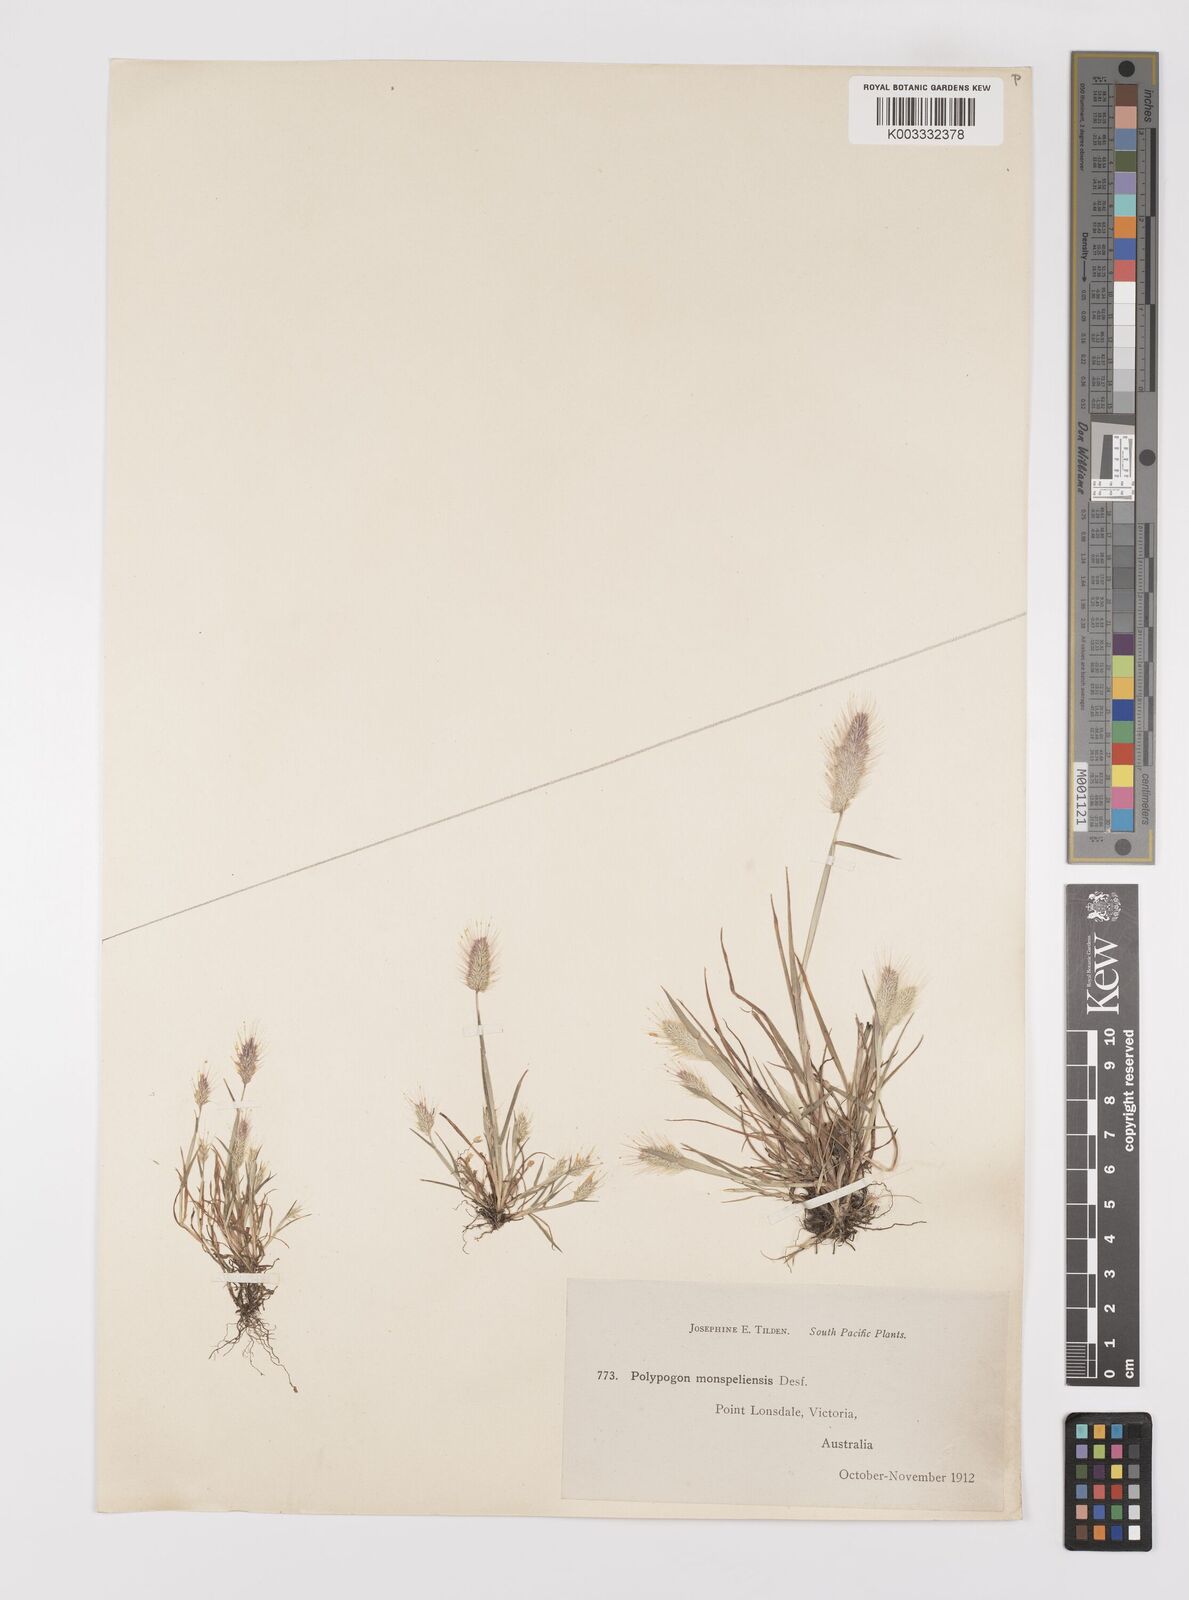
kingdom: Plantae
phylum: Tracheophyta
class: Liliopsida
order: Poales
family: Poaceae
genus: Polypogon
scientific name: Polypogon monspeliensis
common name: Annual rabbitsfoot grass
